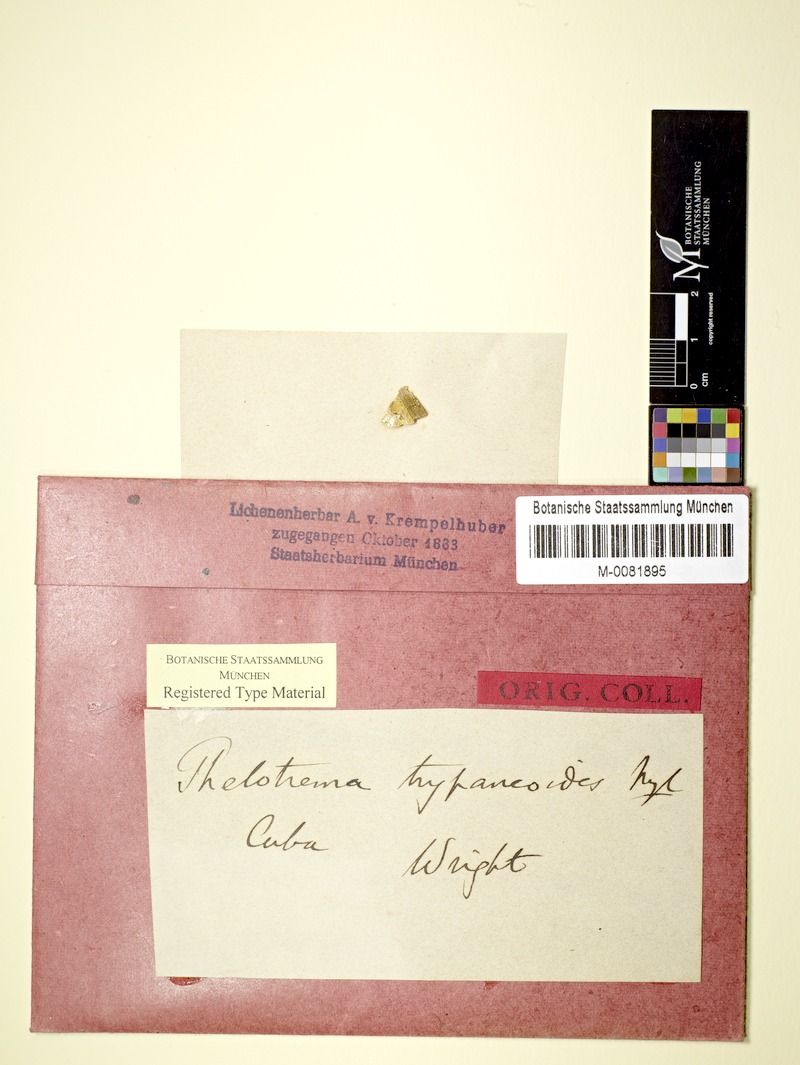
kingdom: Fungi
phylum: Ascomycota
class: Lecanoromycetes
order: Ostropales
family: Graphidaceae
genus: Wirthiotrema
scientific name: Wirthiotrema trypaneoides
